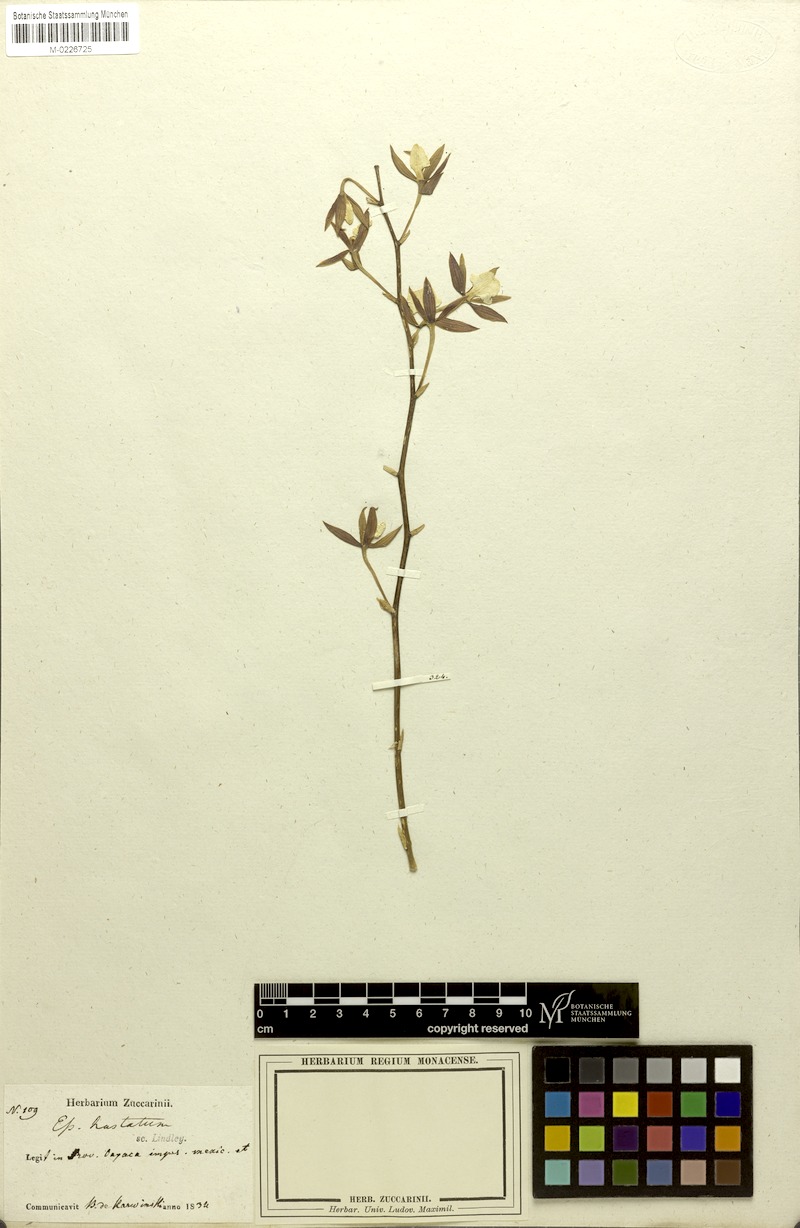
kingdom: Plantae
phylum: Tracheophyta
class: Liliopsida
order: Asparagales
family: Orchidaceae
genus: Prosthechea
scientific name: Prosthechea hastata
